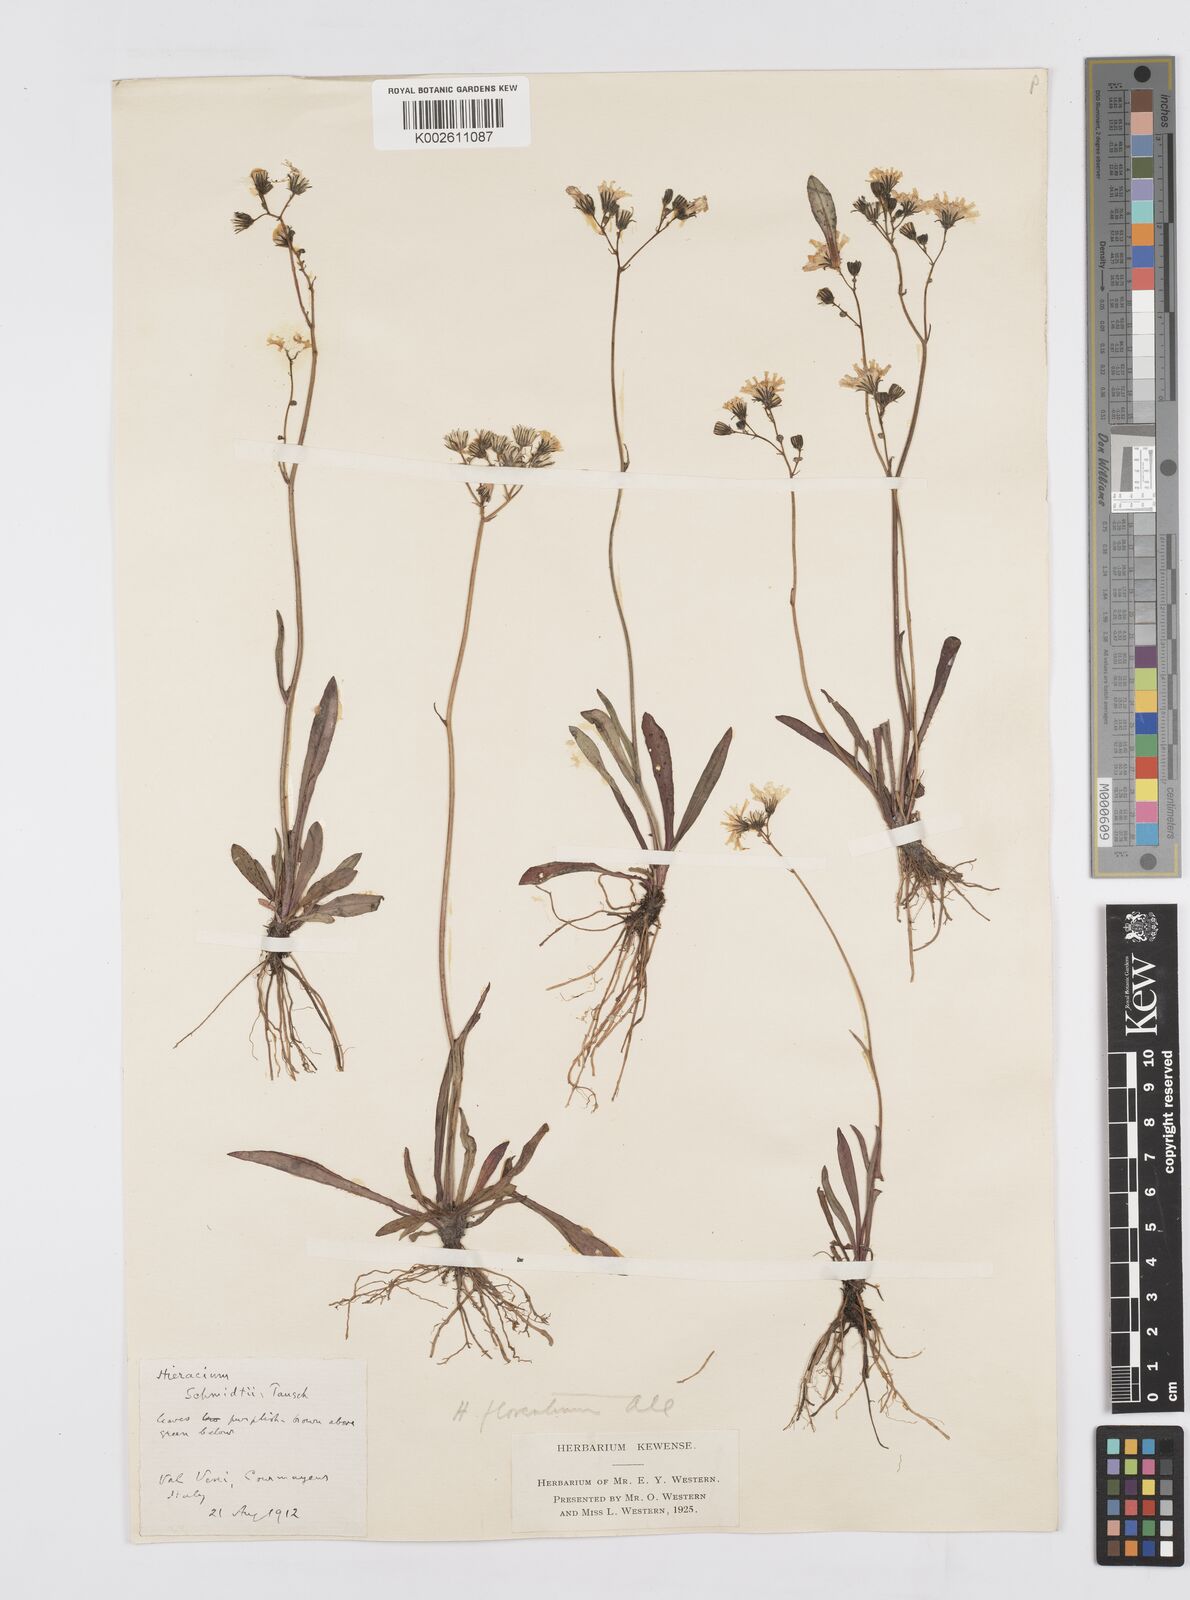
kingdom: Plantae
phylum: Tracheophyta
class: Magnoliopsida
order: Asterales
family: Asteraceae
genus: Pilosella
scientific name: Pilosella piloselloides
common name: Glaucous king-devil
